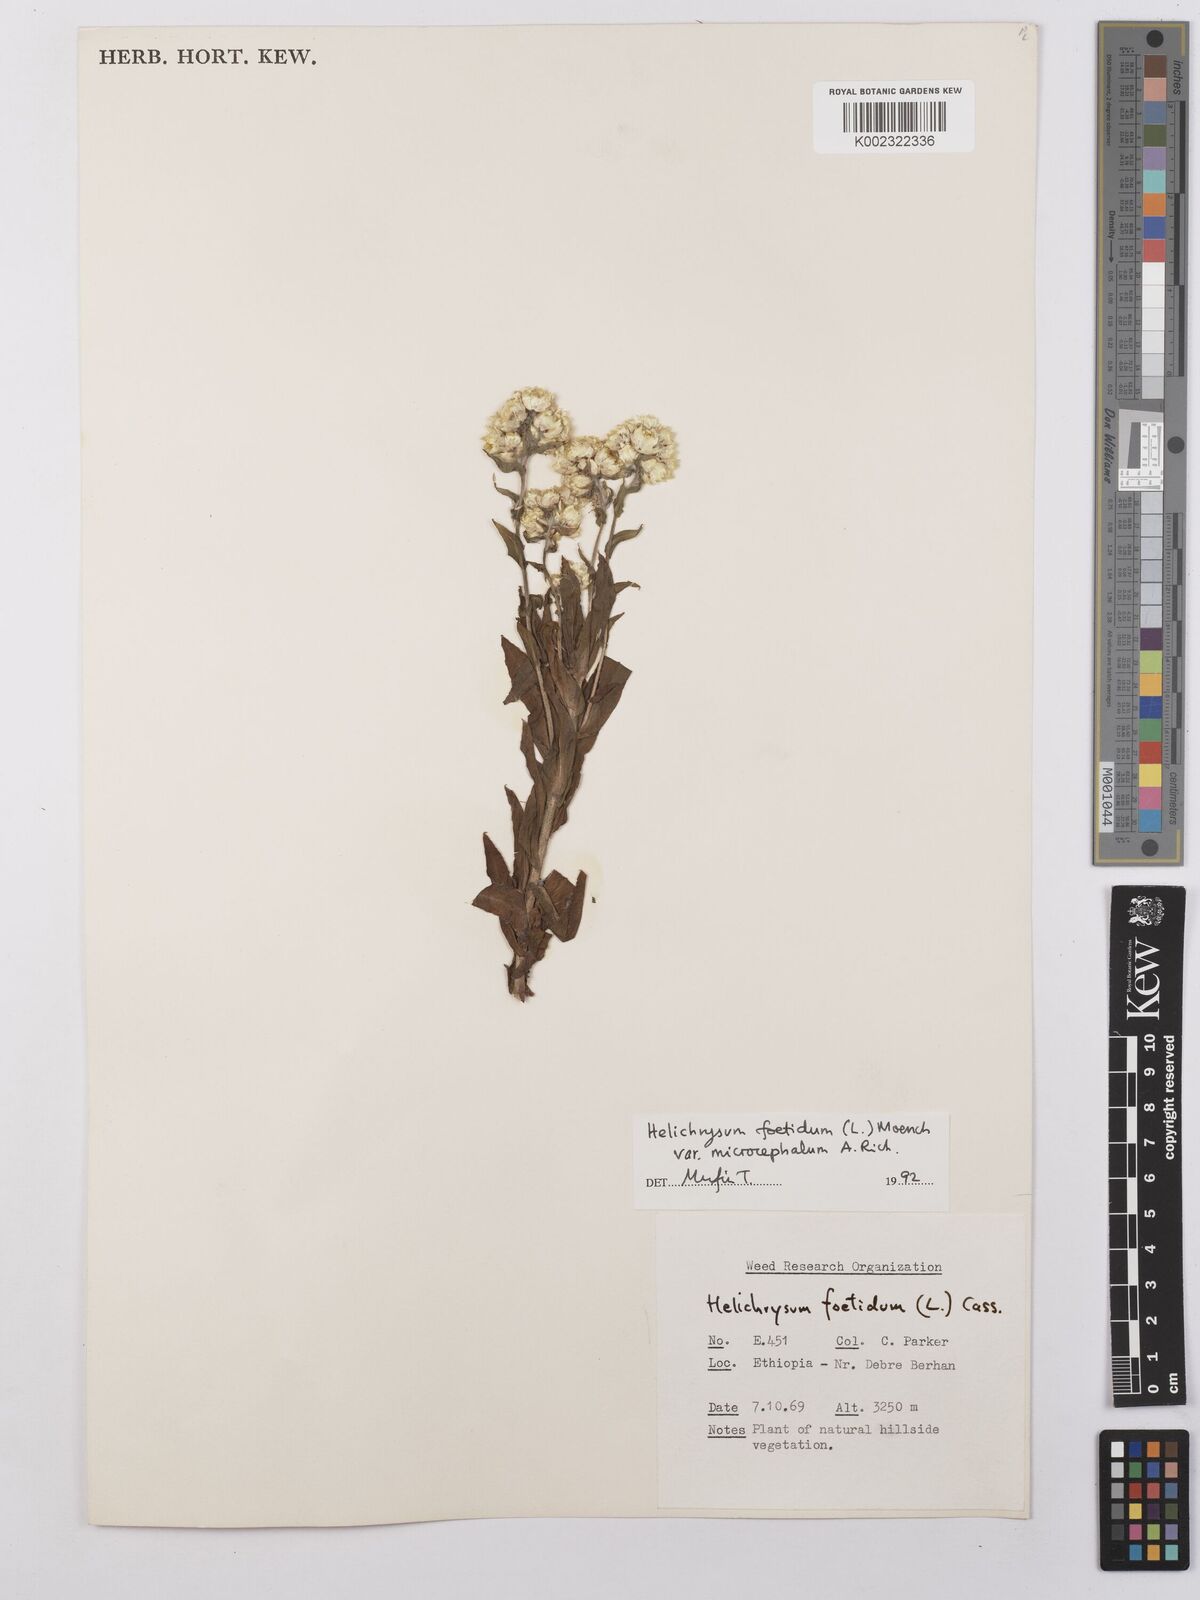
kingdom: Plantae
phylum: Tracheophyta
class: Magnoliopsida
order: Asterales
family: Asteraceae
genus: Helichrysum
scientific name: Helichrysum foetidum
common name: Stinking everlasting
